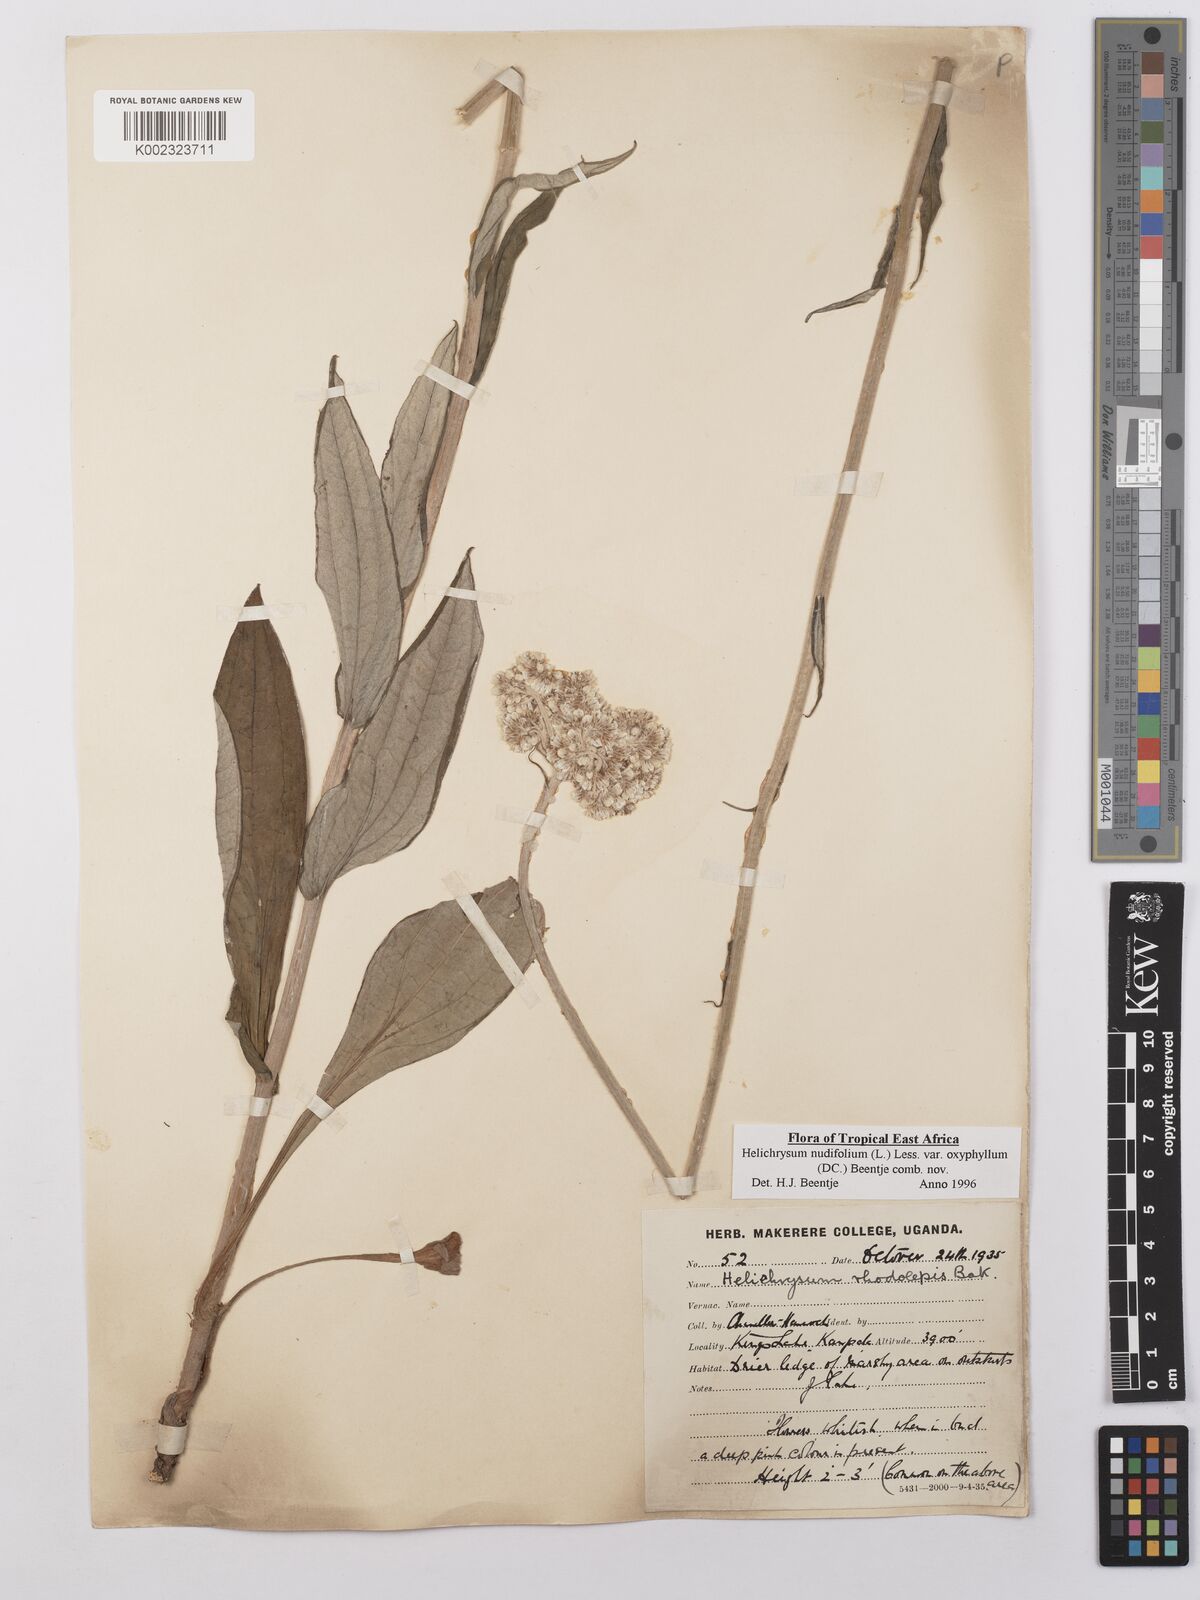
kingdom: Plantae
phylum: Tracheophyta
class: Magnoliopsida
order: Asterales
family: Asteraceae
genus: Helichrysum
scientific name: Helichrysum nudifolium
